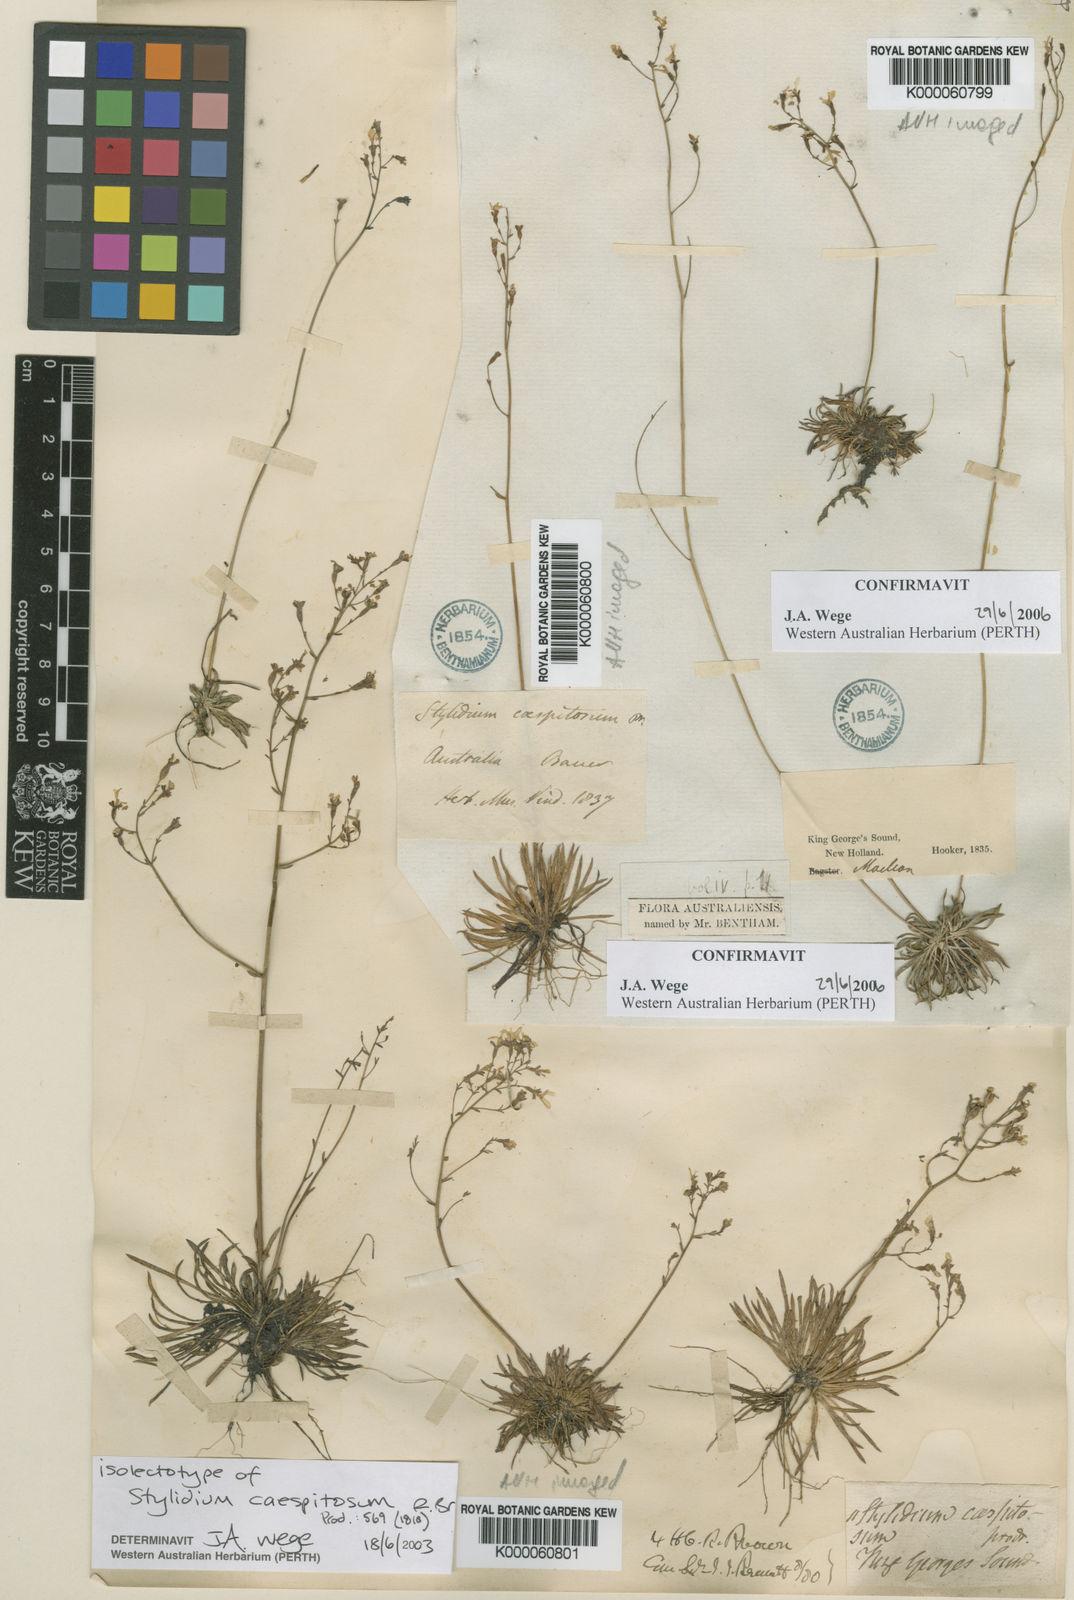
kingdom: Plantae
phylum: Tracheophyta
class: Magnoliopsida
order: Asterales
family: Stylidiaceae
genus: Stylidium
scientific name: Stylidium caespitosum
